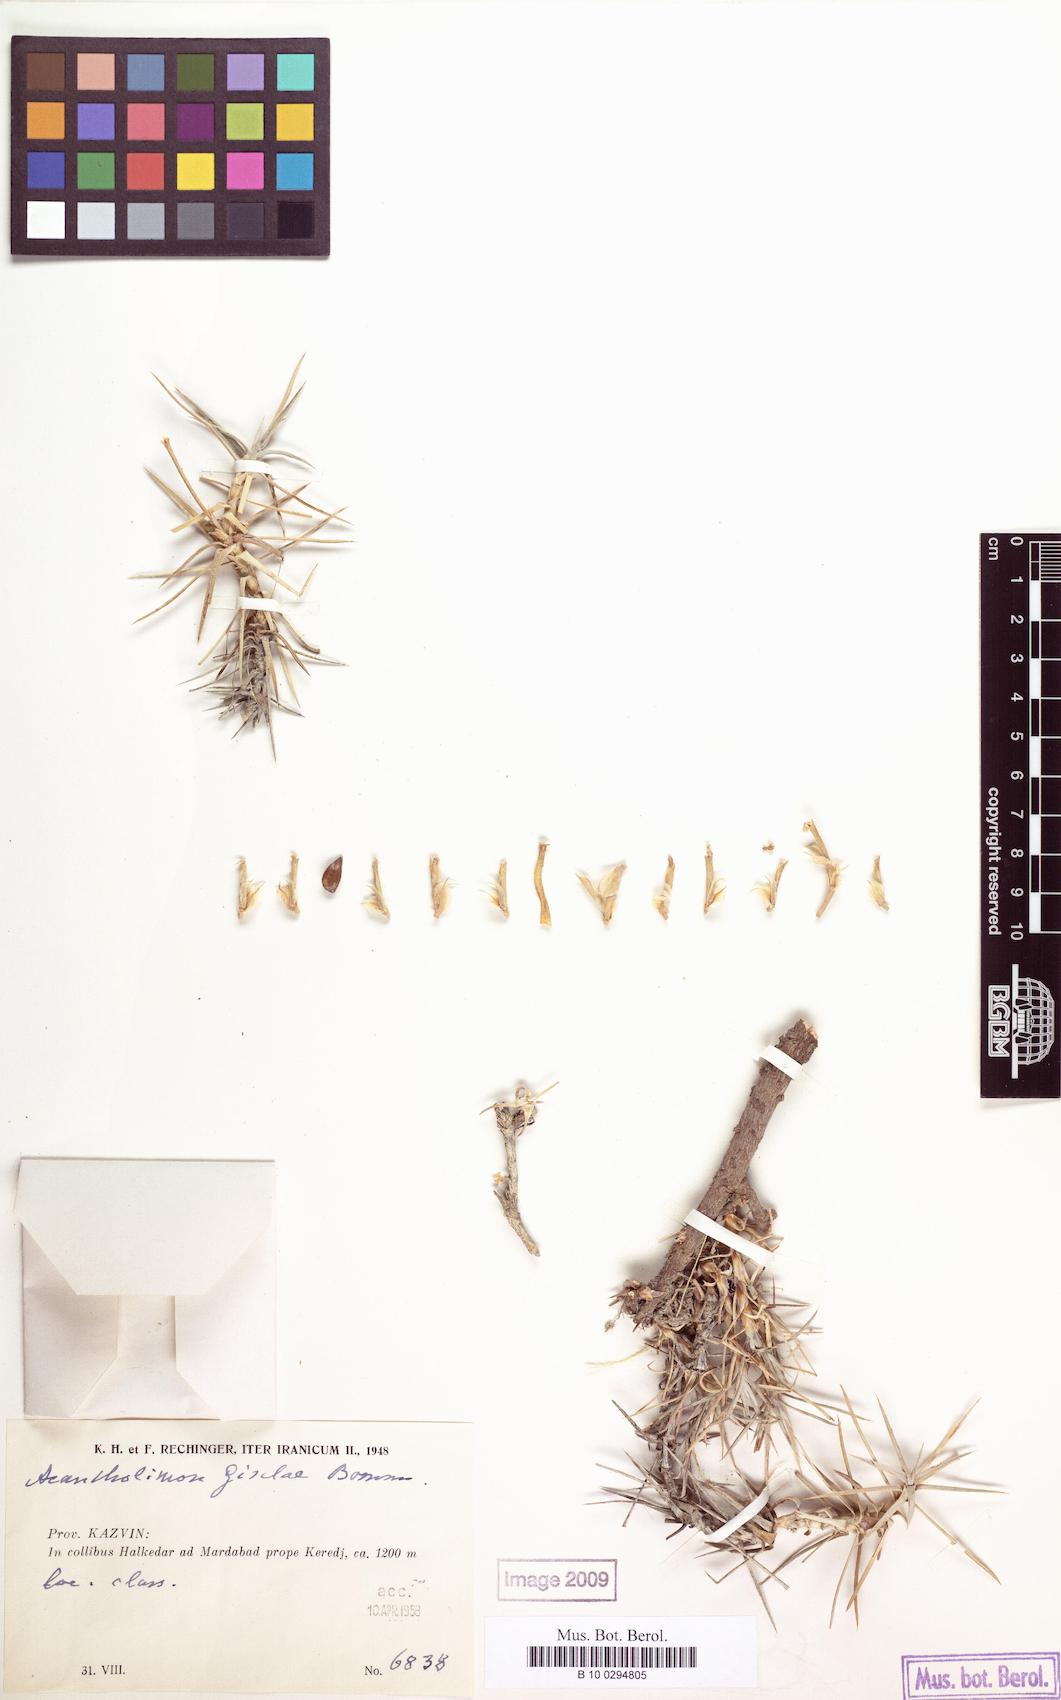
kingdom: Plantae
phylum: Tracheophyta
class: Magnoliopsida
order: Caryophyllales
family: Plumbaginaceae
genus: Acantholimon
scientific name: Acantholimon acmostegium
